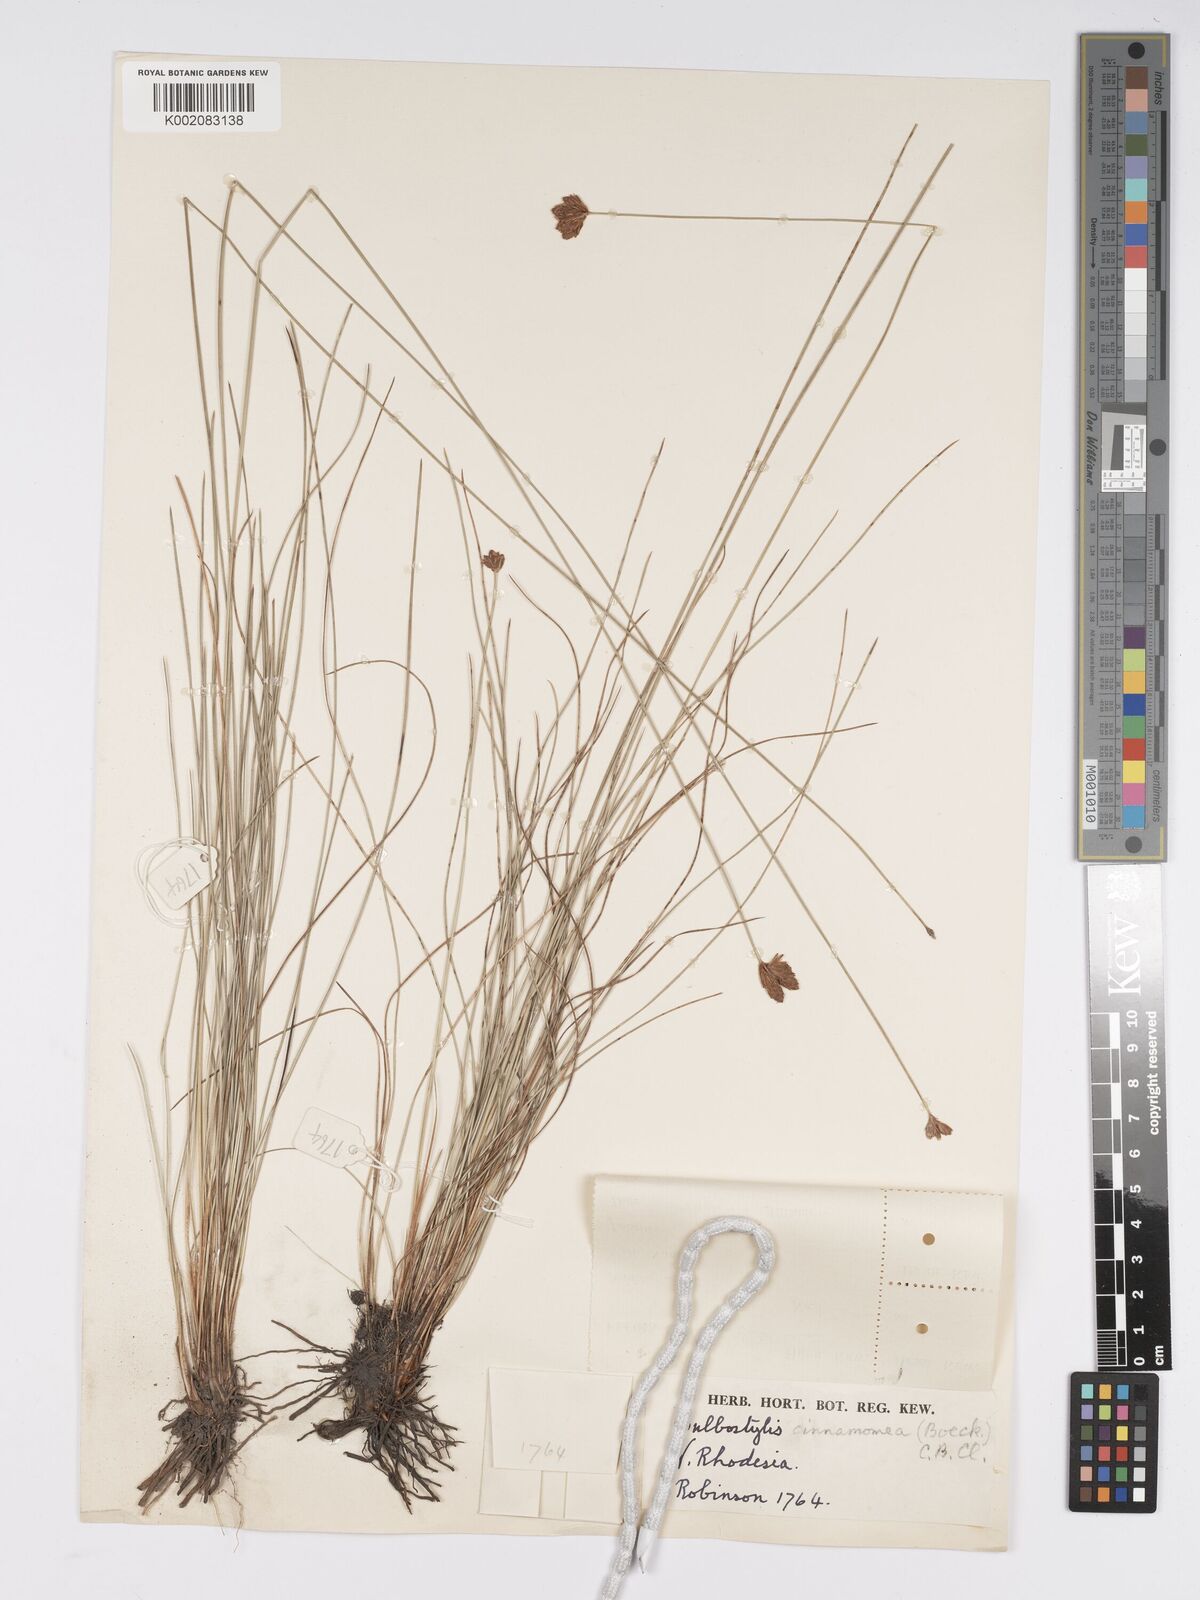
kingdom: Plantae
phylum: Tracheophyta
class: Liliopsida
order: Poales
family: Cyperaceae
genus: Bulbostylis
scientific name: Bulbostylis schoenoides
